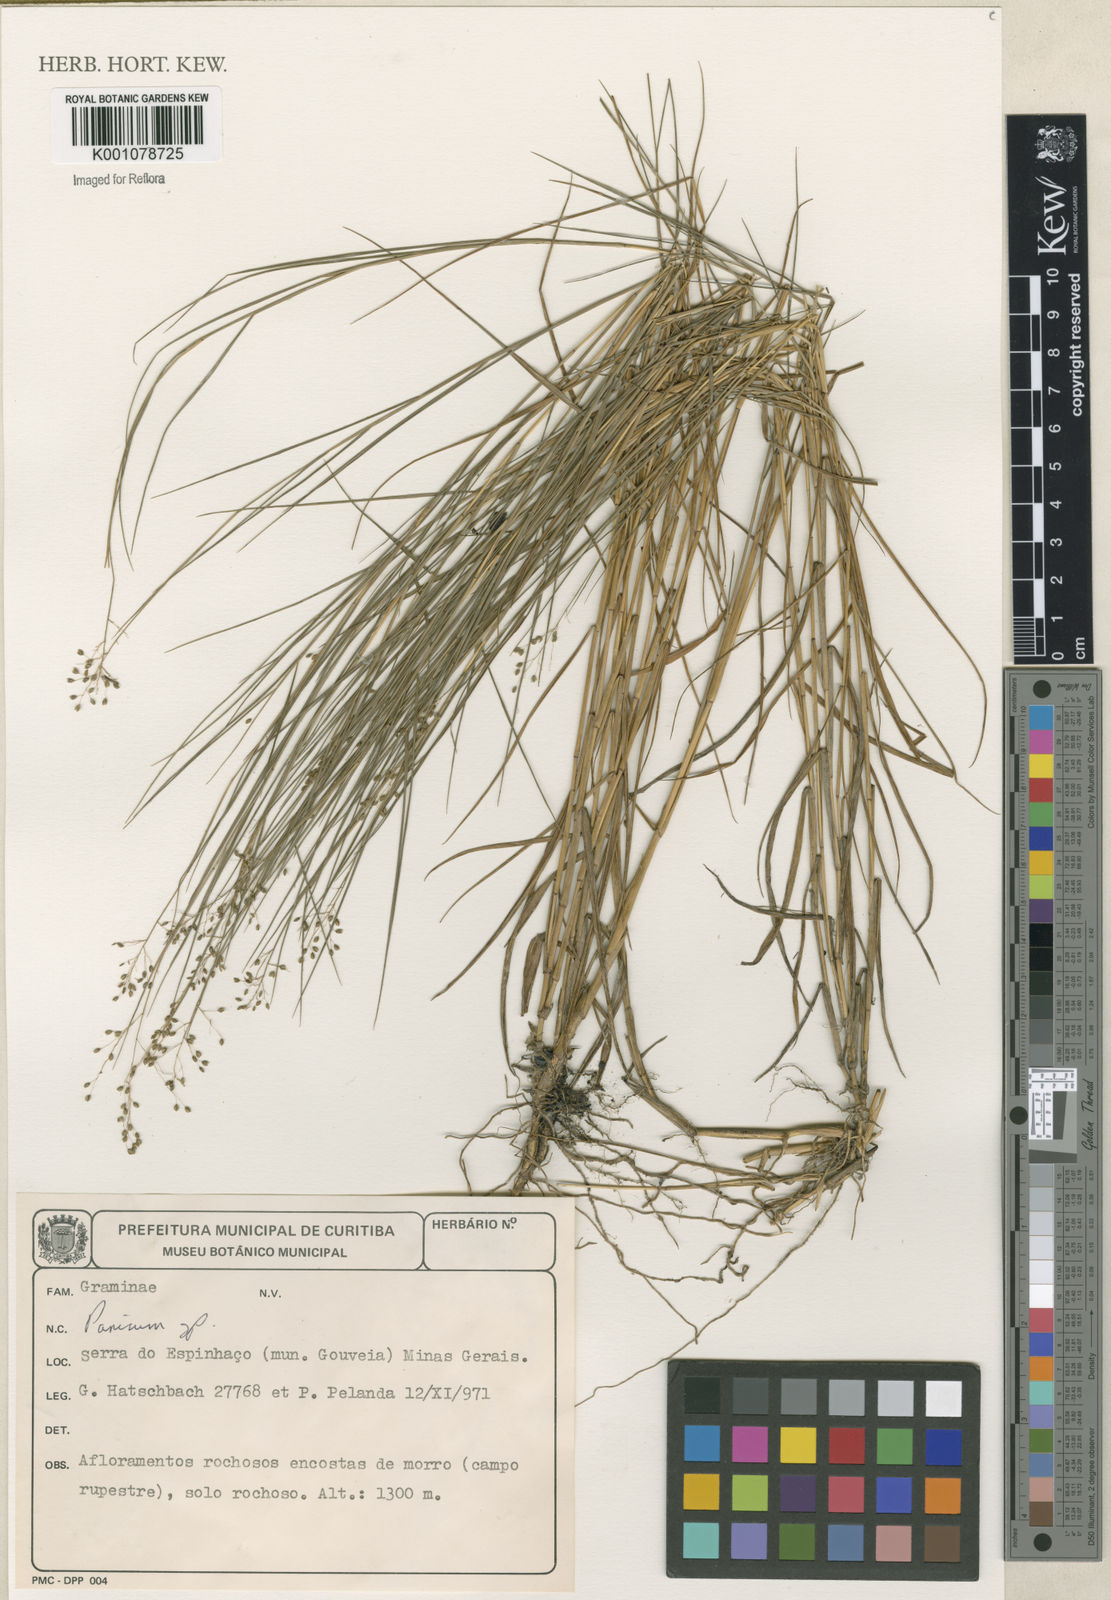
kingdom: Plantae
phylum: Tracheophyta
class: Liliopsida
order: Poales
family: Poaceae
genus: Panicum
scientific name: Panicum
